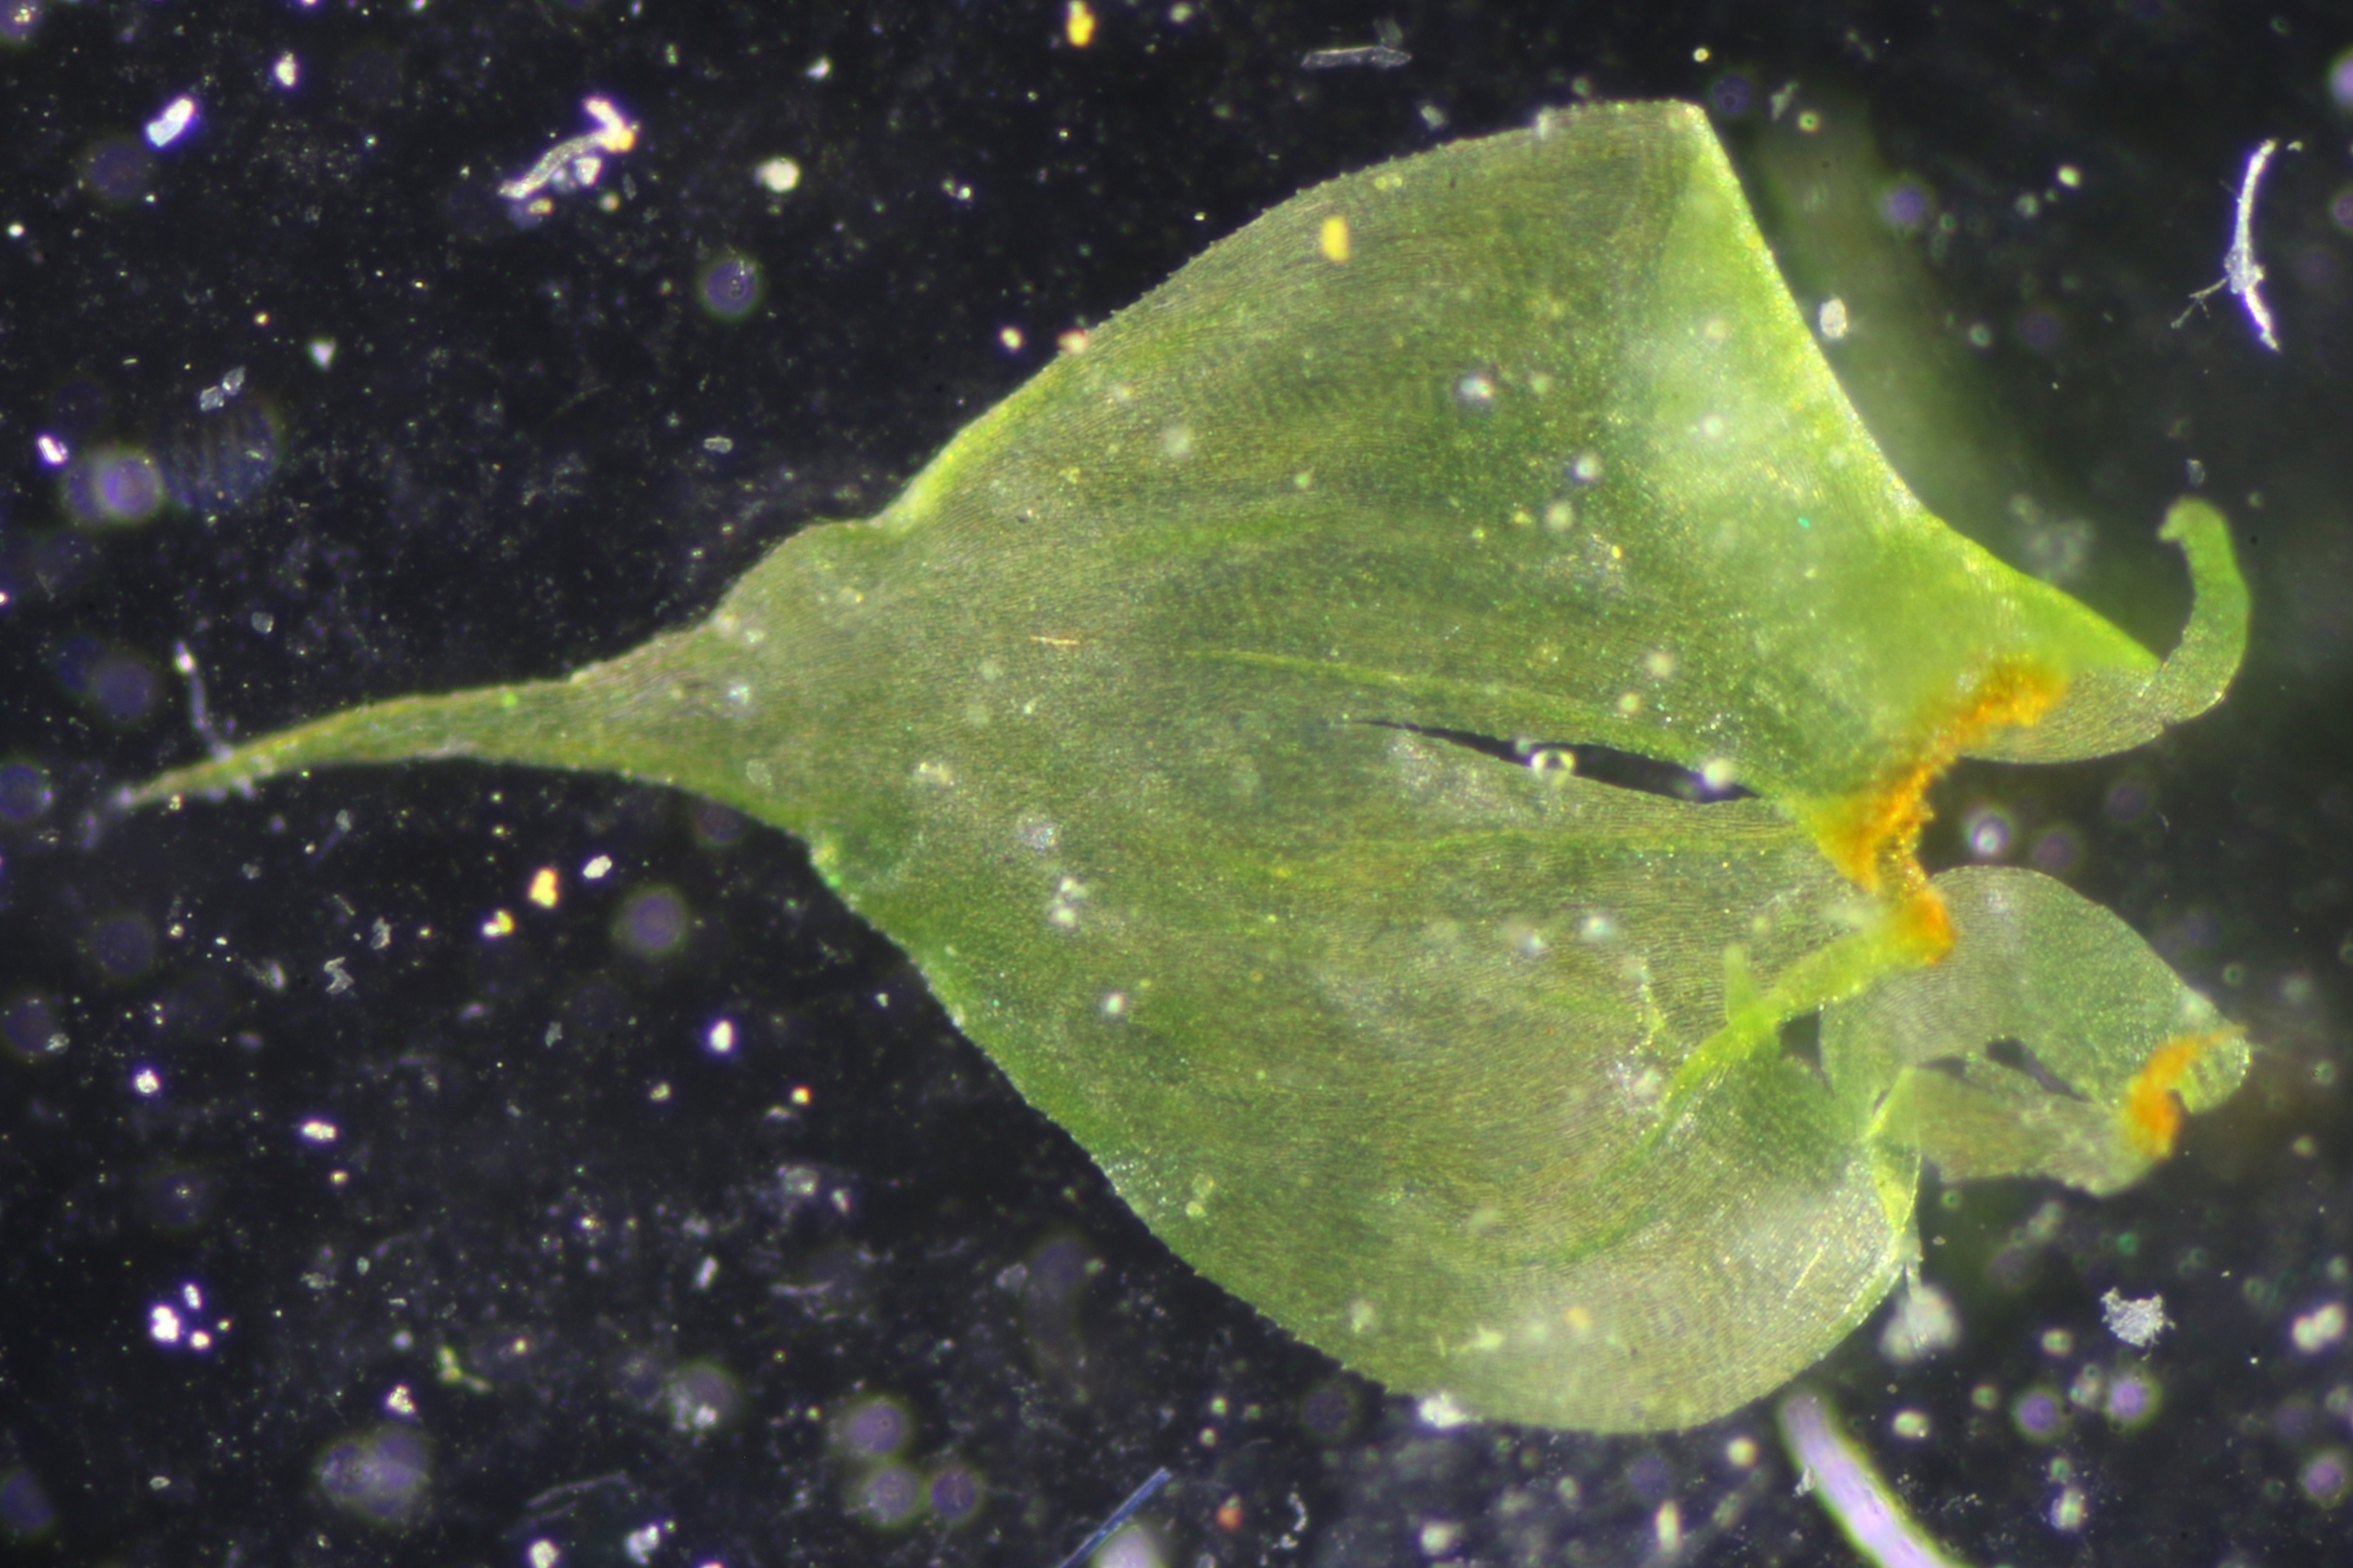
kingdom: Plantae
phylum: Bryophyta
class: Bryopsida
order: Hypnales
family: Hylocomiaceae
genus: Loeskeobryum
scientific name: Loeskeobryum brevirostre
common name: Åben etagemos
